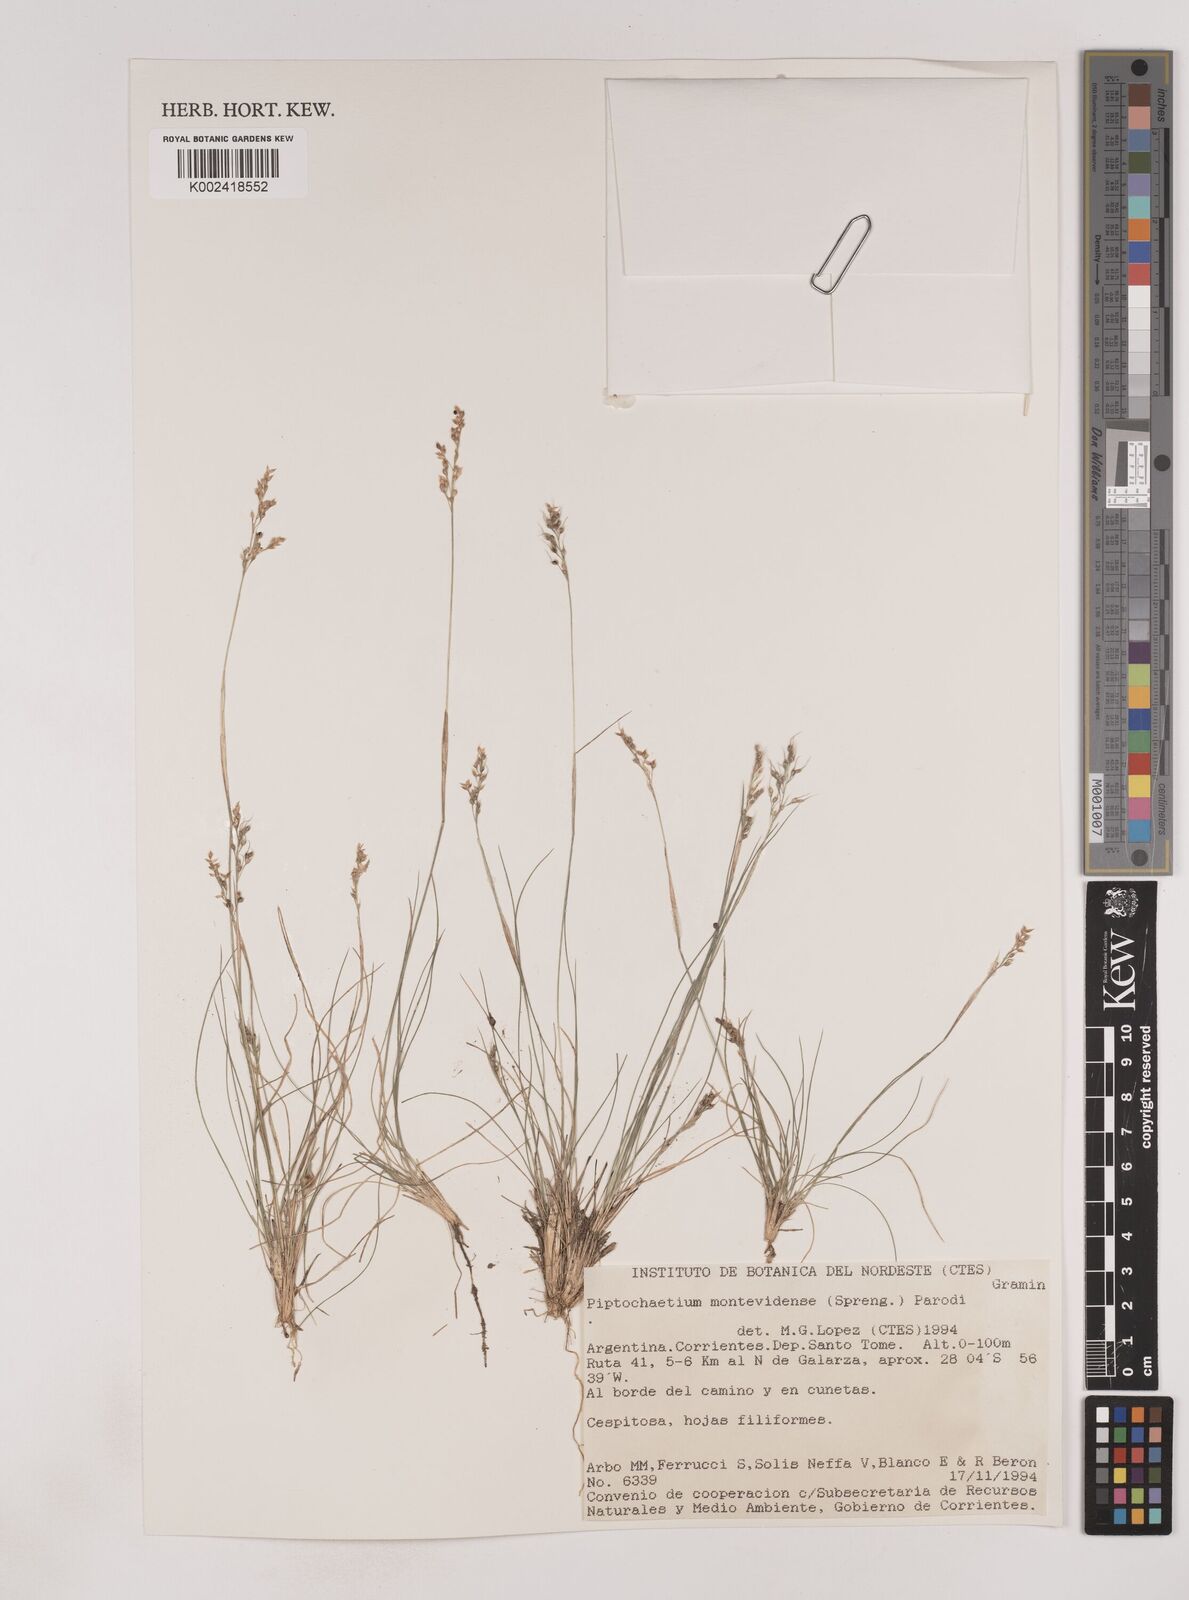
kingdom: Plantae
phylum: Tracheophyta
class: Liliopsida
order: Poales
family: Poaceae
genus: Piptochaetium
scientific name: Piptochaetium montevidense
